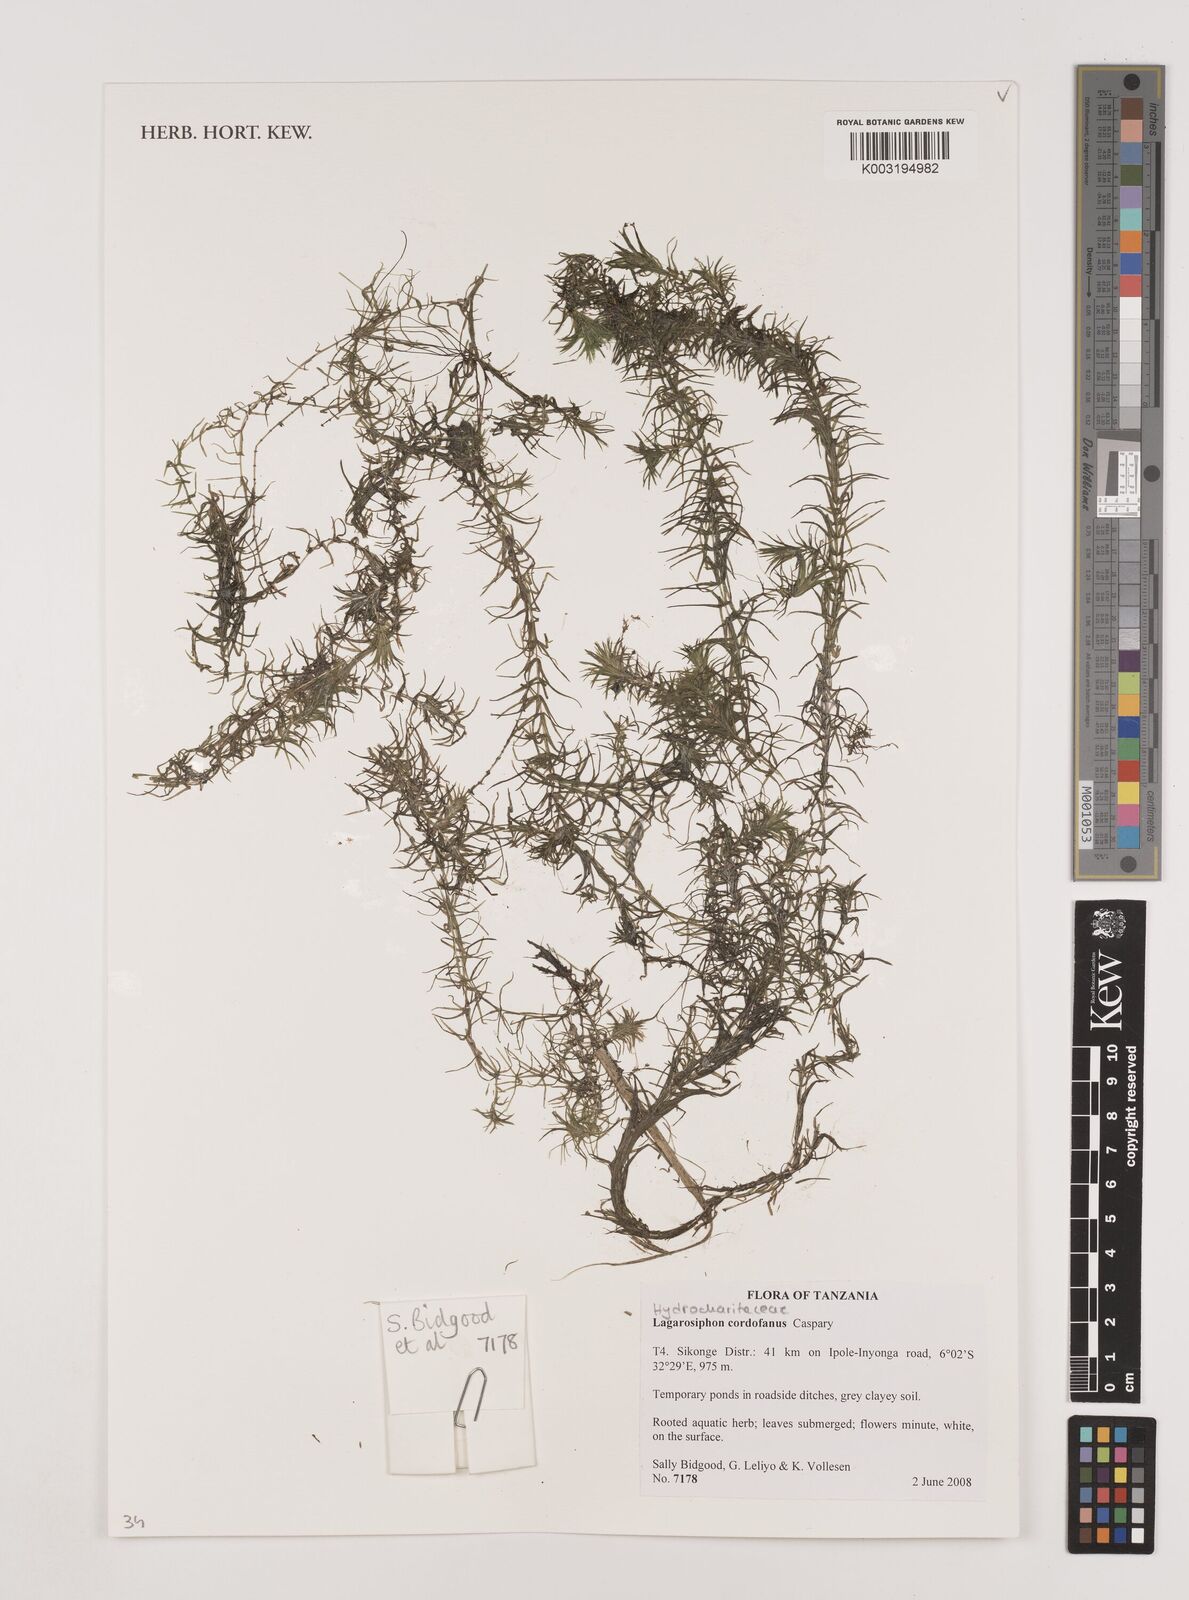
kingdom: Plantae
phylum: Tracheophyta
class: Liliopsida
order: Alismatales
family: Hydrocharitaceae
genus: Lagarosiphon
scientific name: Lagarosiphon cordofanus
